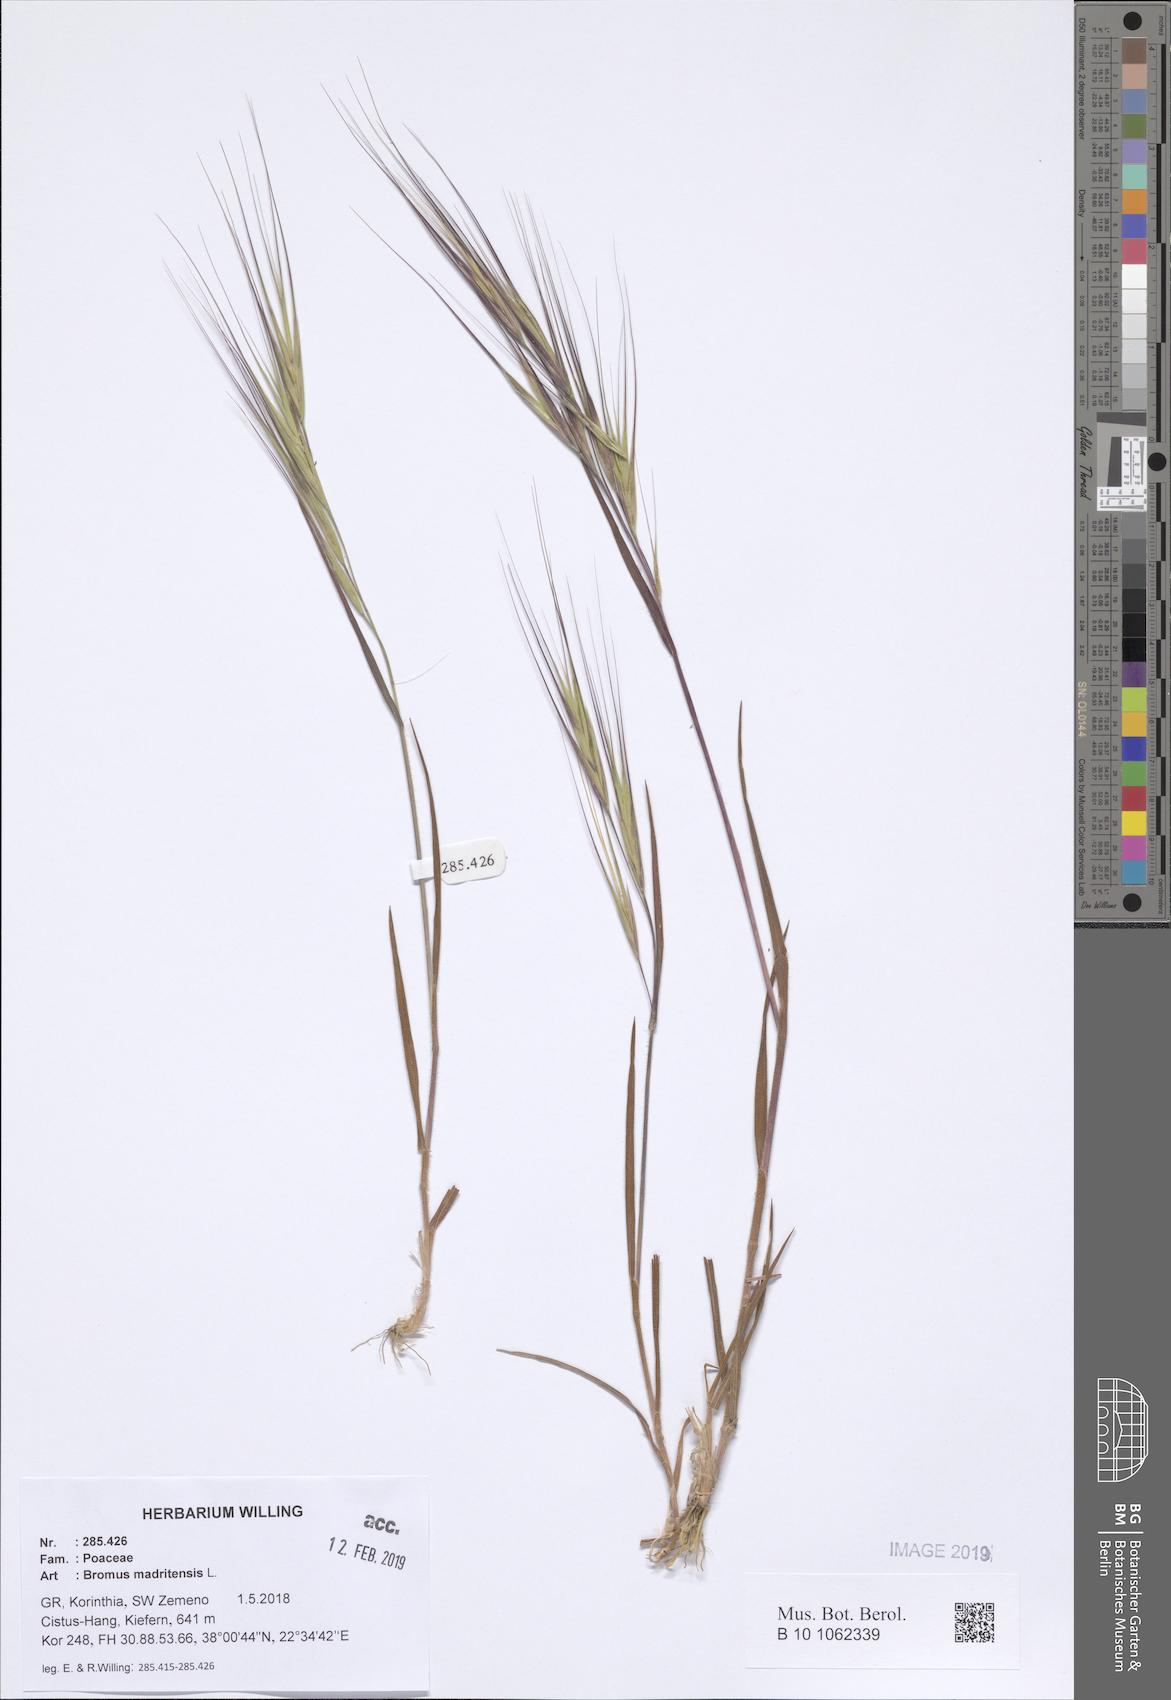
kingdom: Plantae
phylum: Tracheophyta
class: Liliopsida
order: Poales
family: Poaceae
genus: Bromus
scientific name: Bromus madritensis
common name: Compact brome
